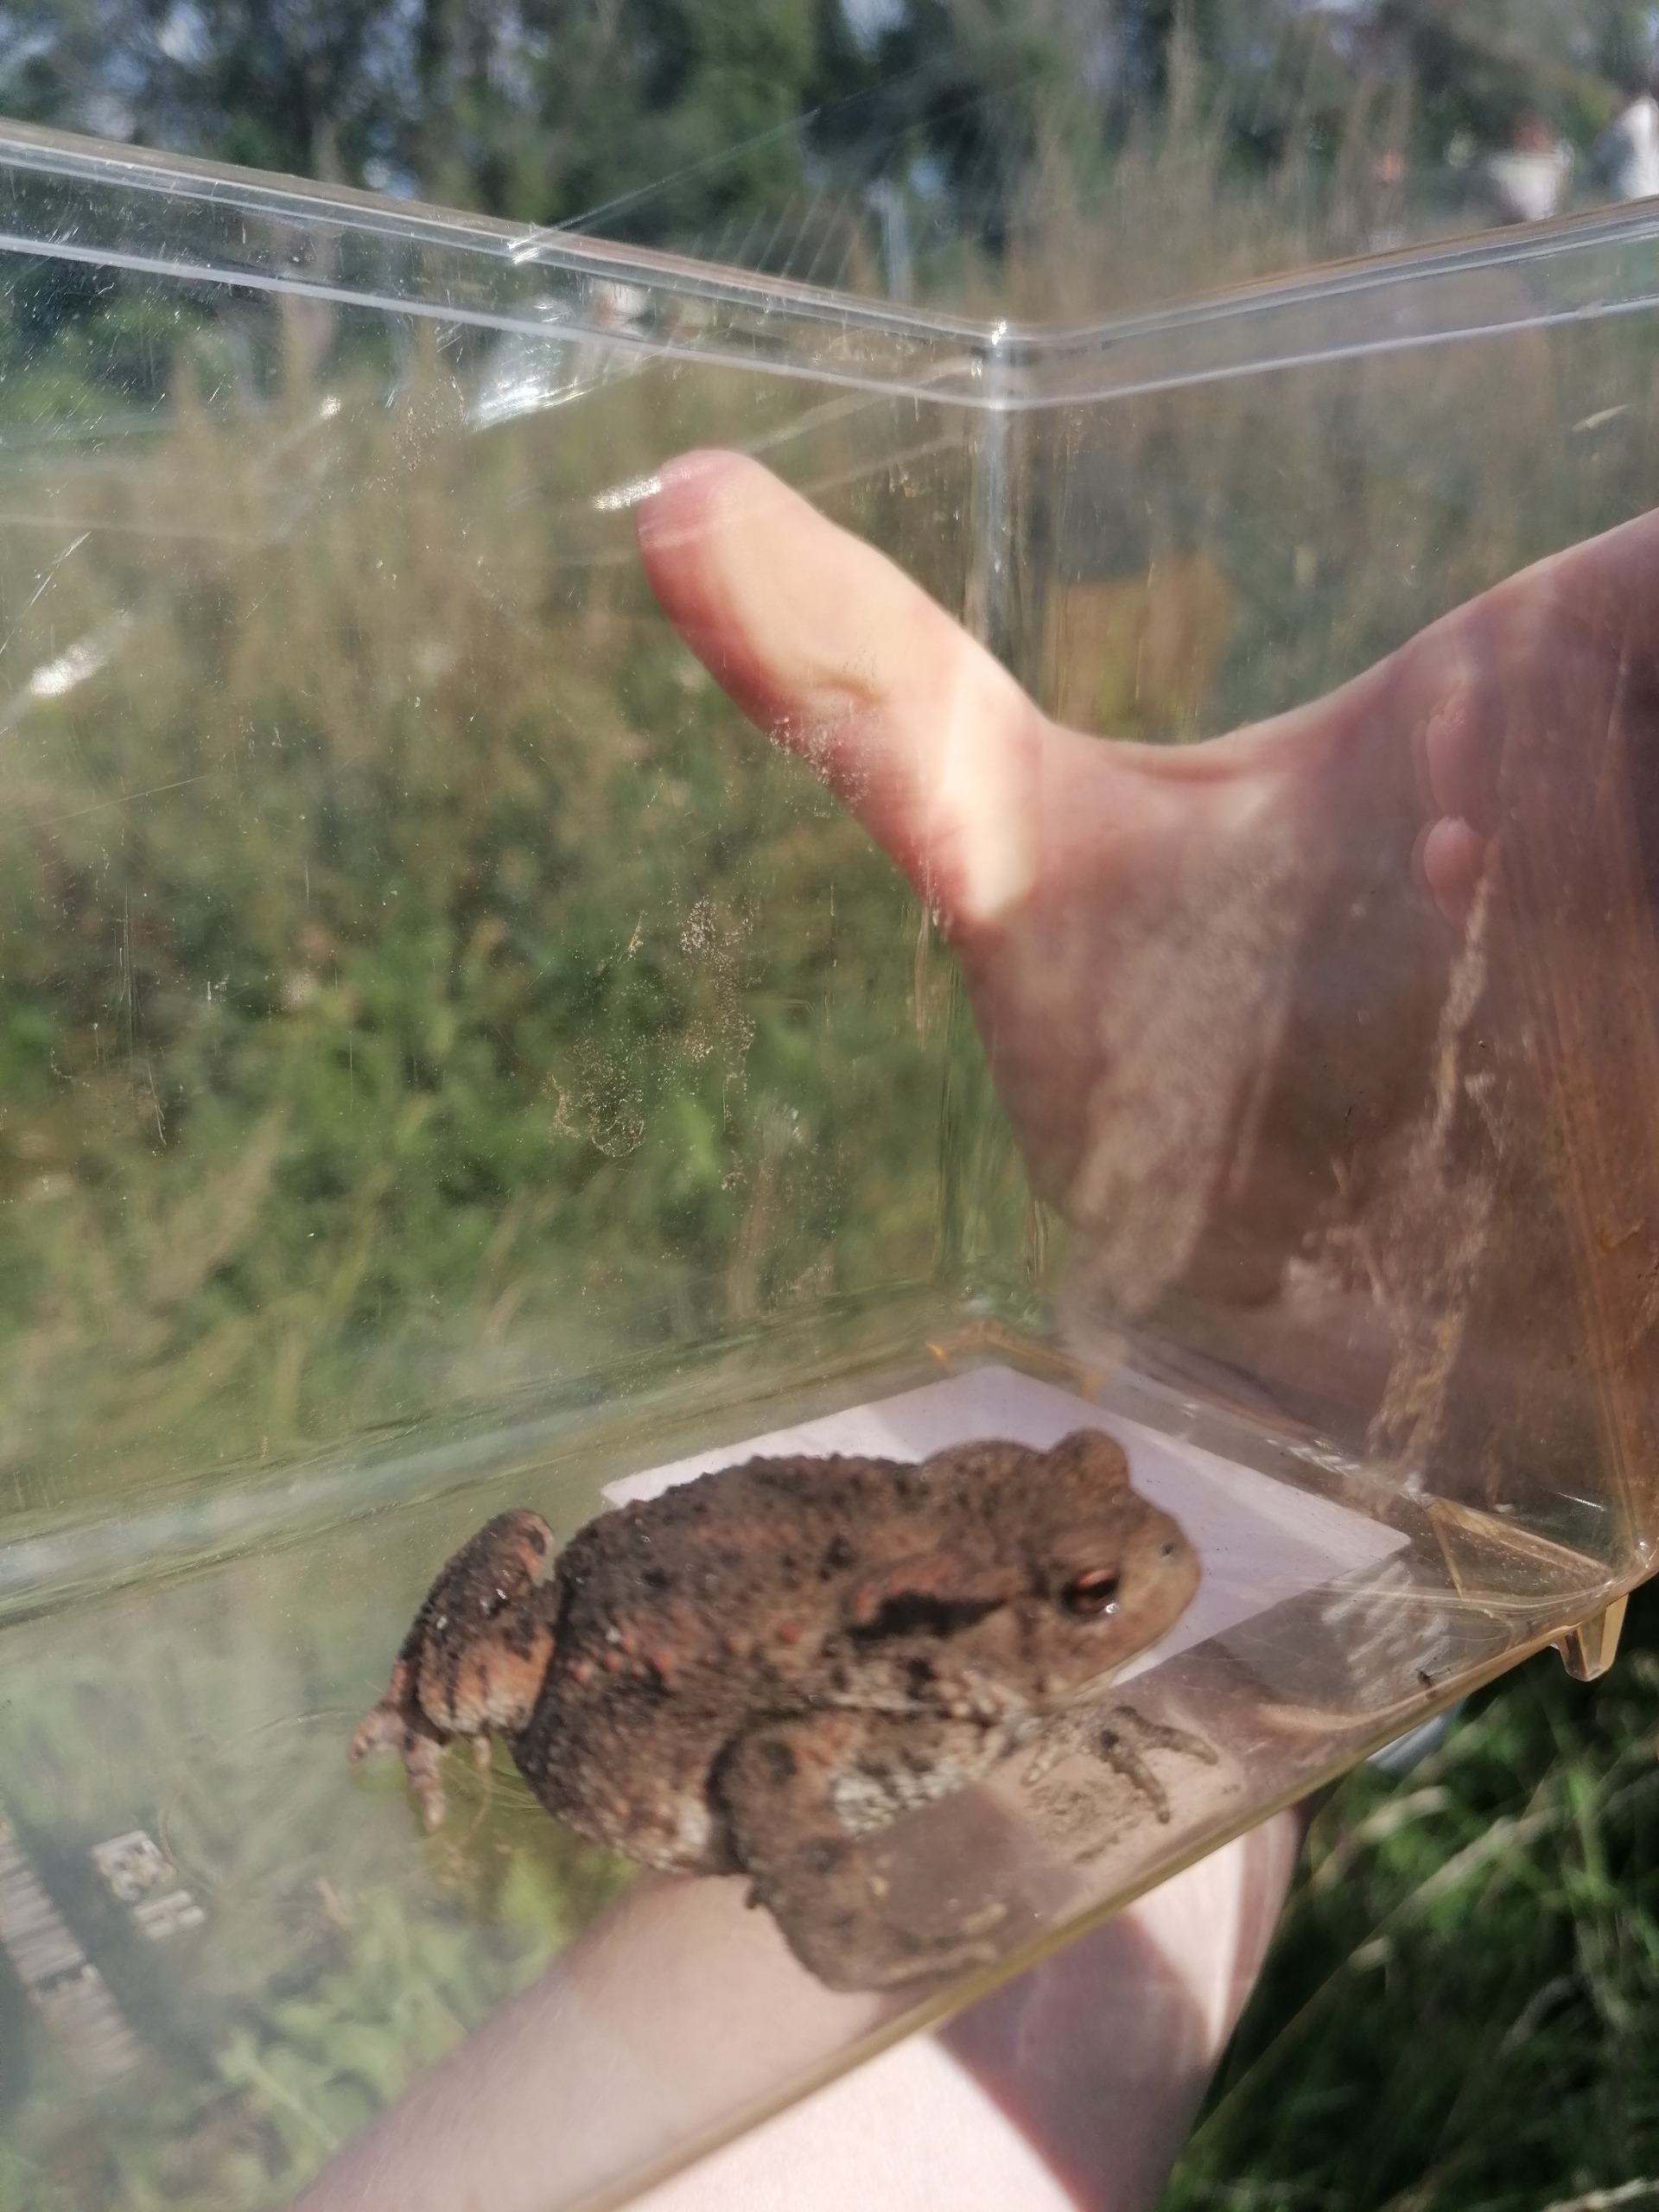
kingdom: Animalia
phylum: Chordata
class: Amphibia
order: Anura
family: Bufonidae
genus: Bufo
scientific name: Bufo bufo
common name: Skrubtudse
